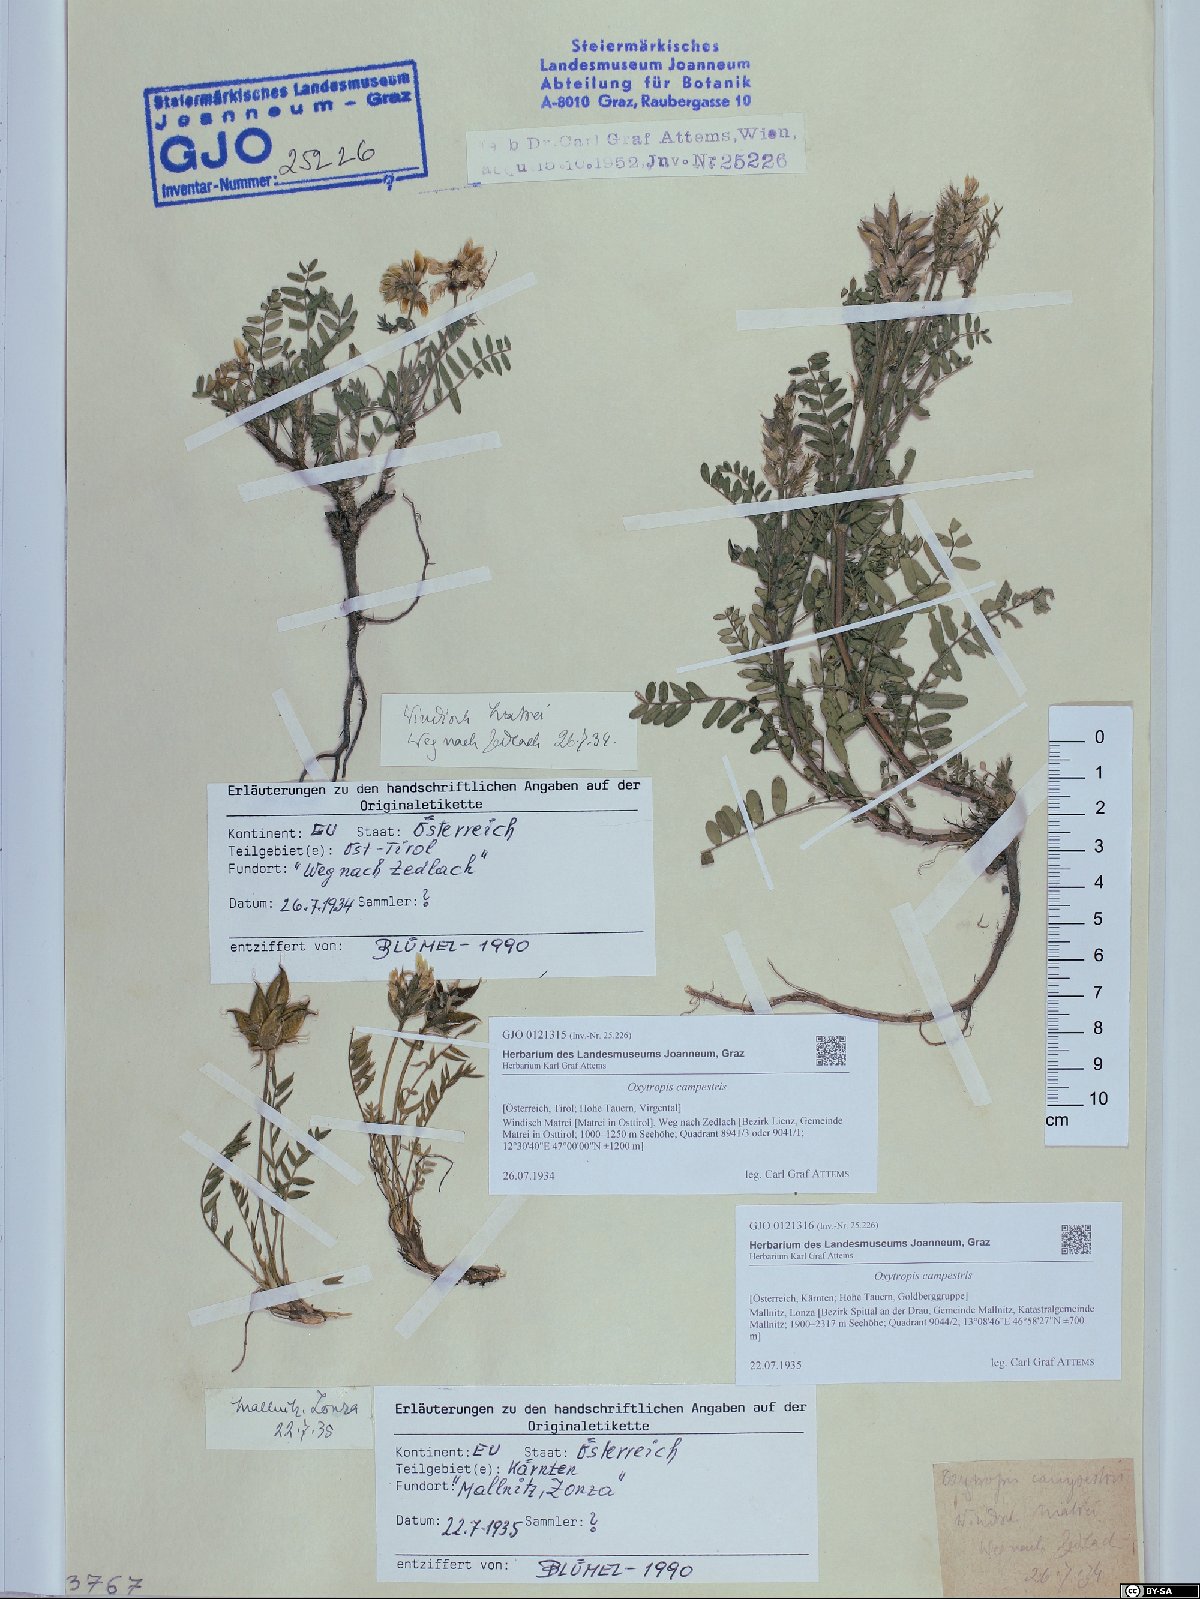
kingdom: Plantae
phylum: Tracheophyta
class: Magnoliopsida
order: Fabales
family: Fabaceae
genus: Oxytropis
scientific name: Oxytropis campestris
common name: Field locoweed
